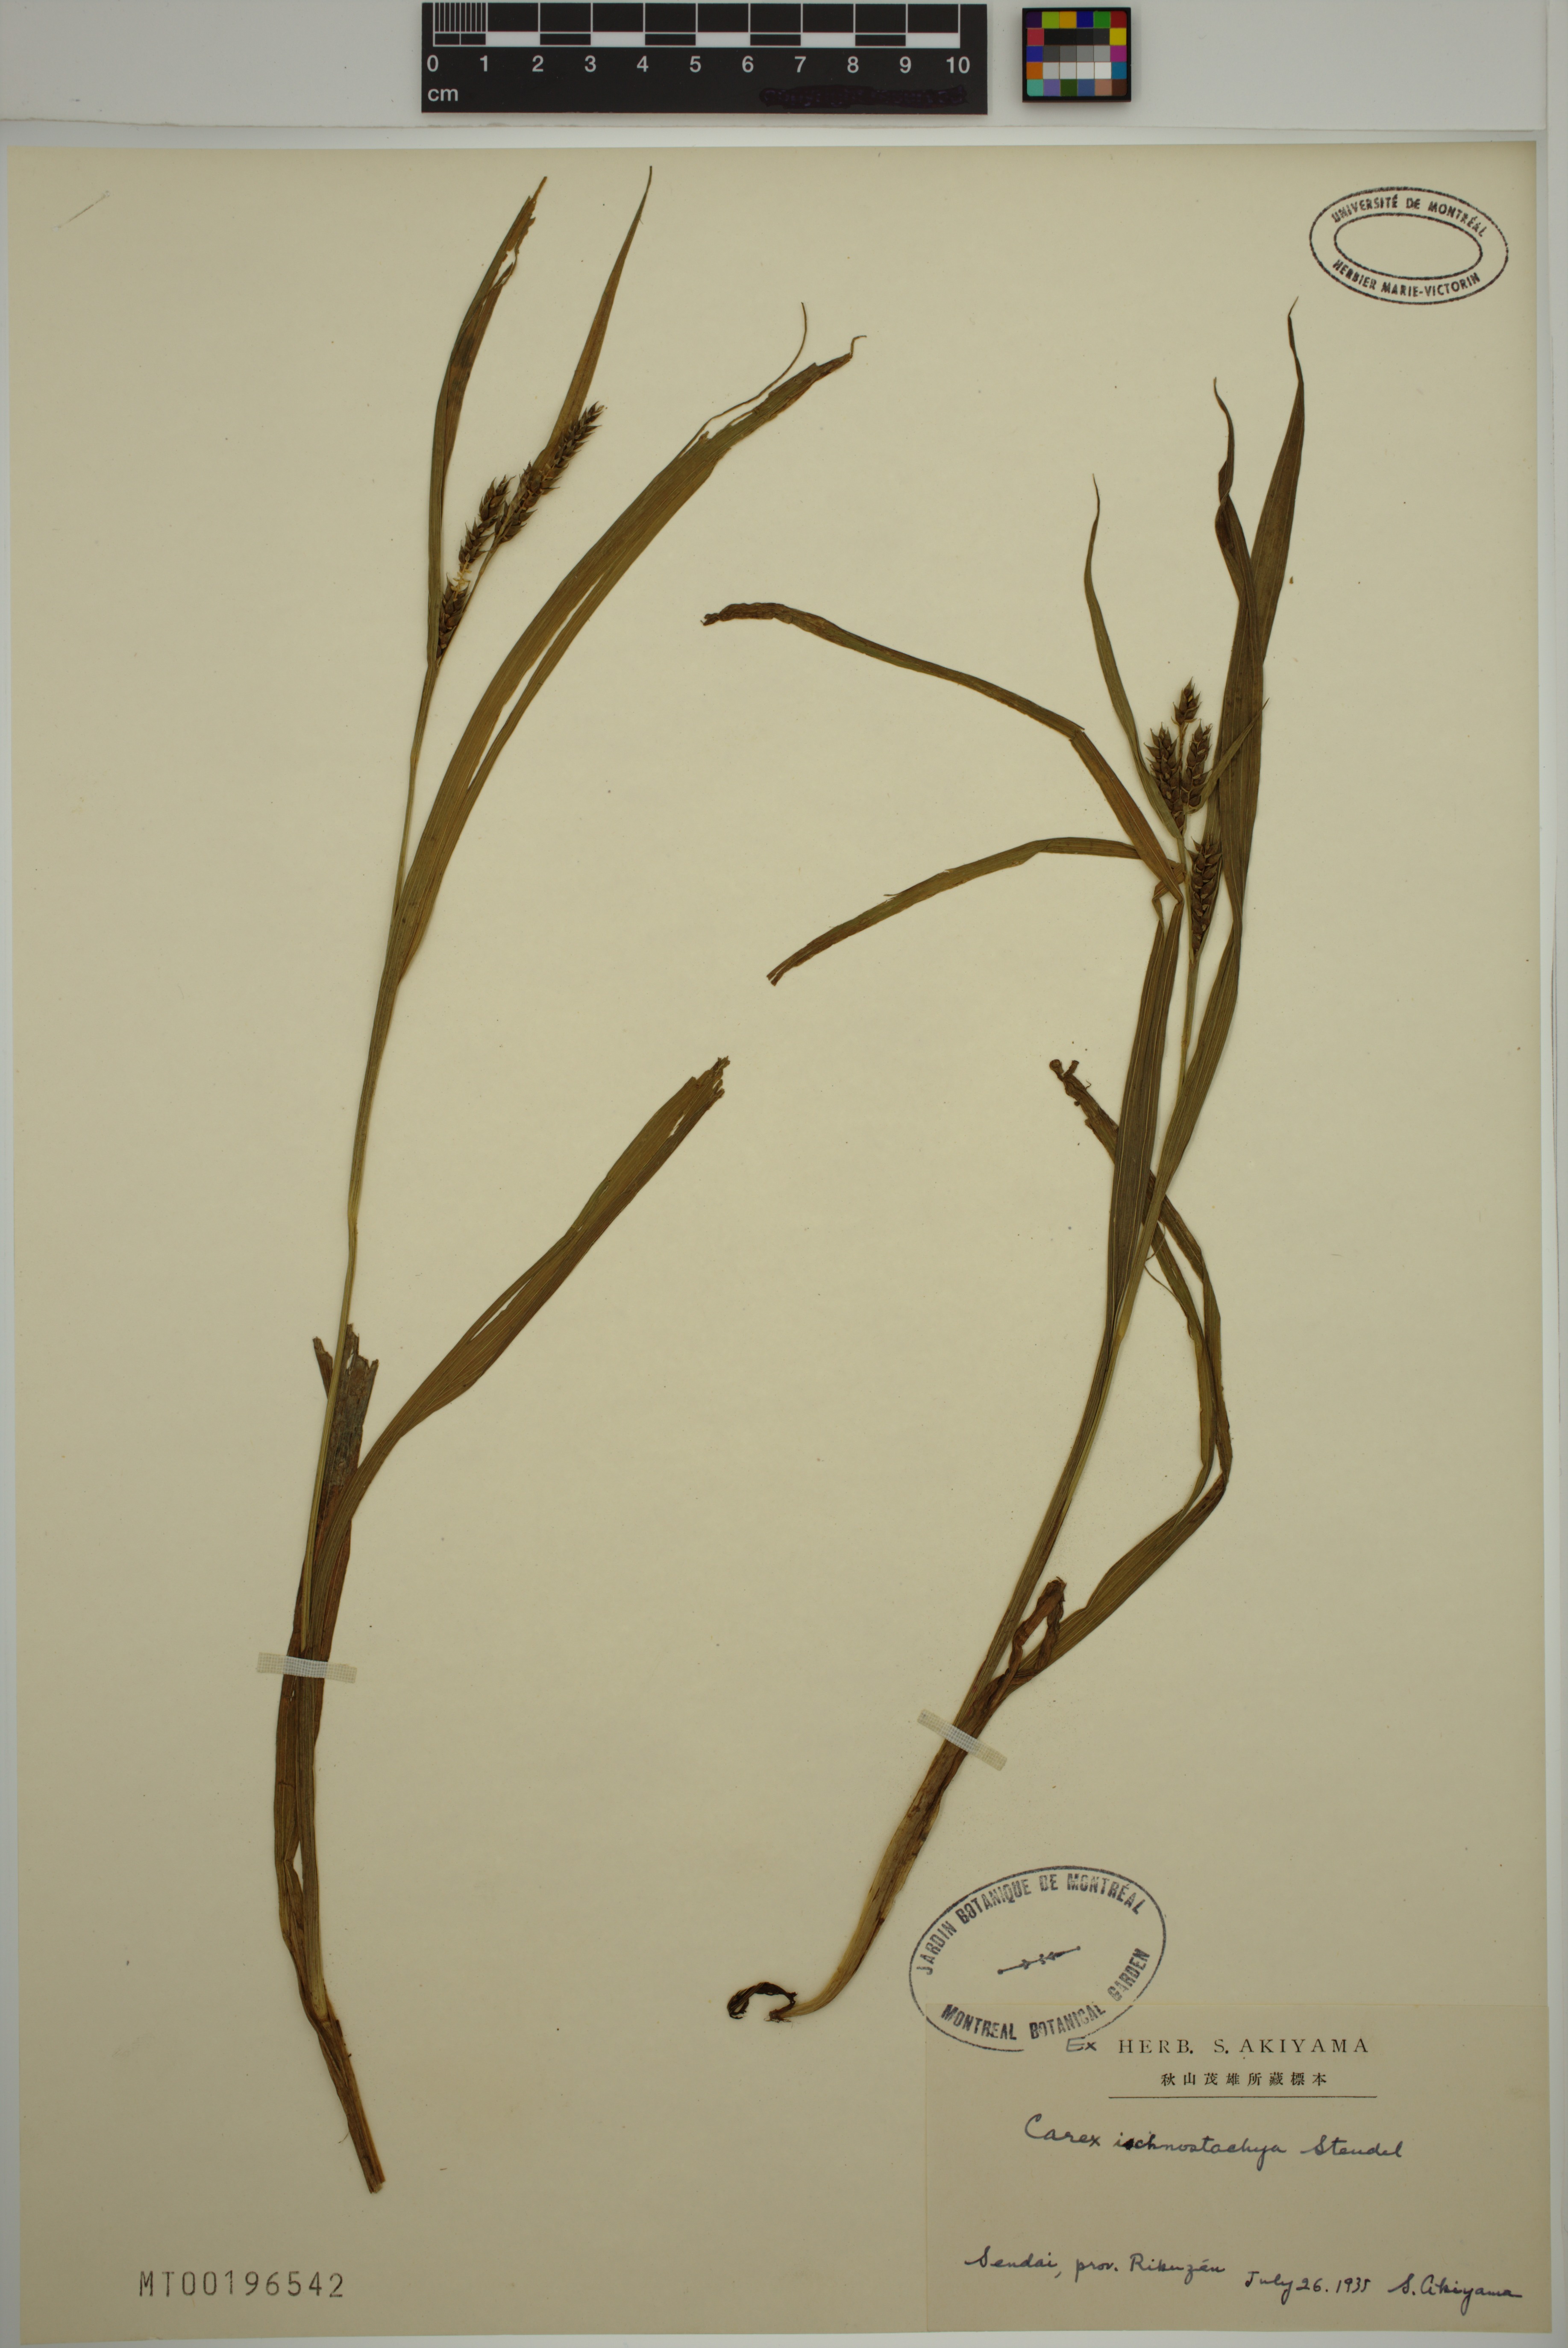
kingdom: Plantae
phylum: Tracheophyta
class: Liliopsida
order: Poales
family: Cyperaceae
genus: Carex
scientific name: Carex ischnostachya
